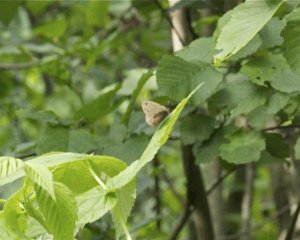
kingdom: Animalia
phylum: Arthropoda
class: Insecta
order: Lepidoptera
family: Nymphalidae
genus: Euptychia
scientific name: Euptychia cymela
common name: Little Wood Satyr
